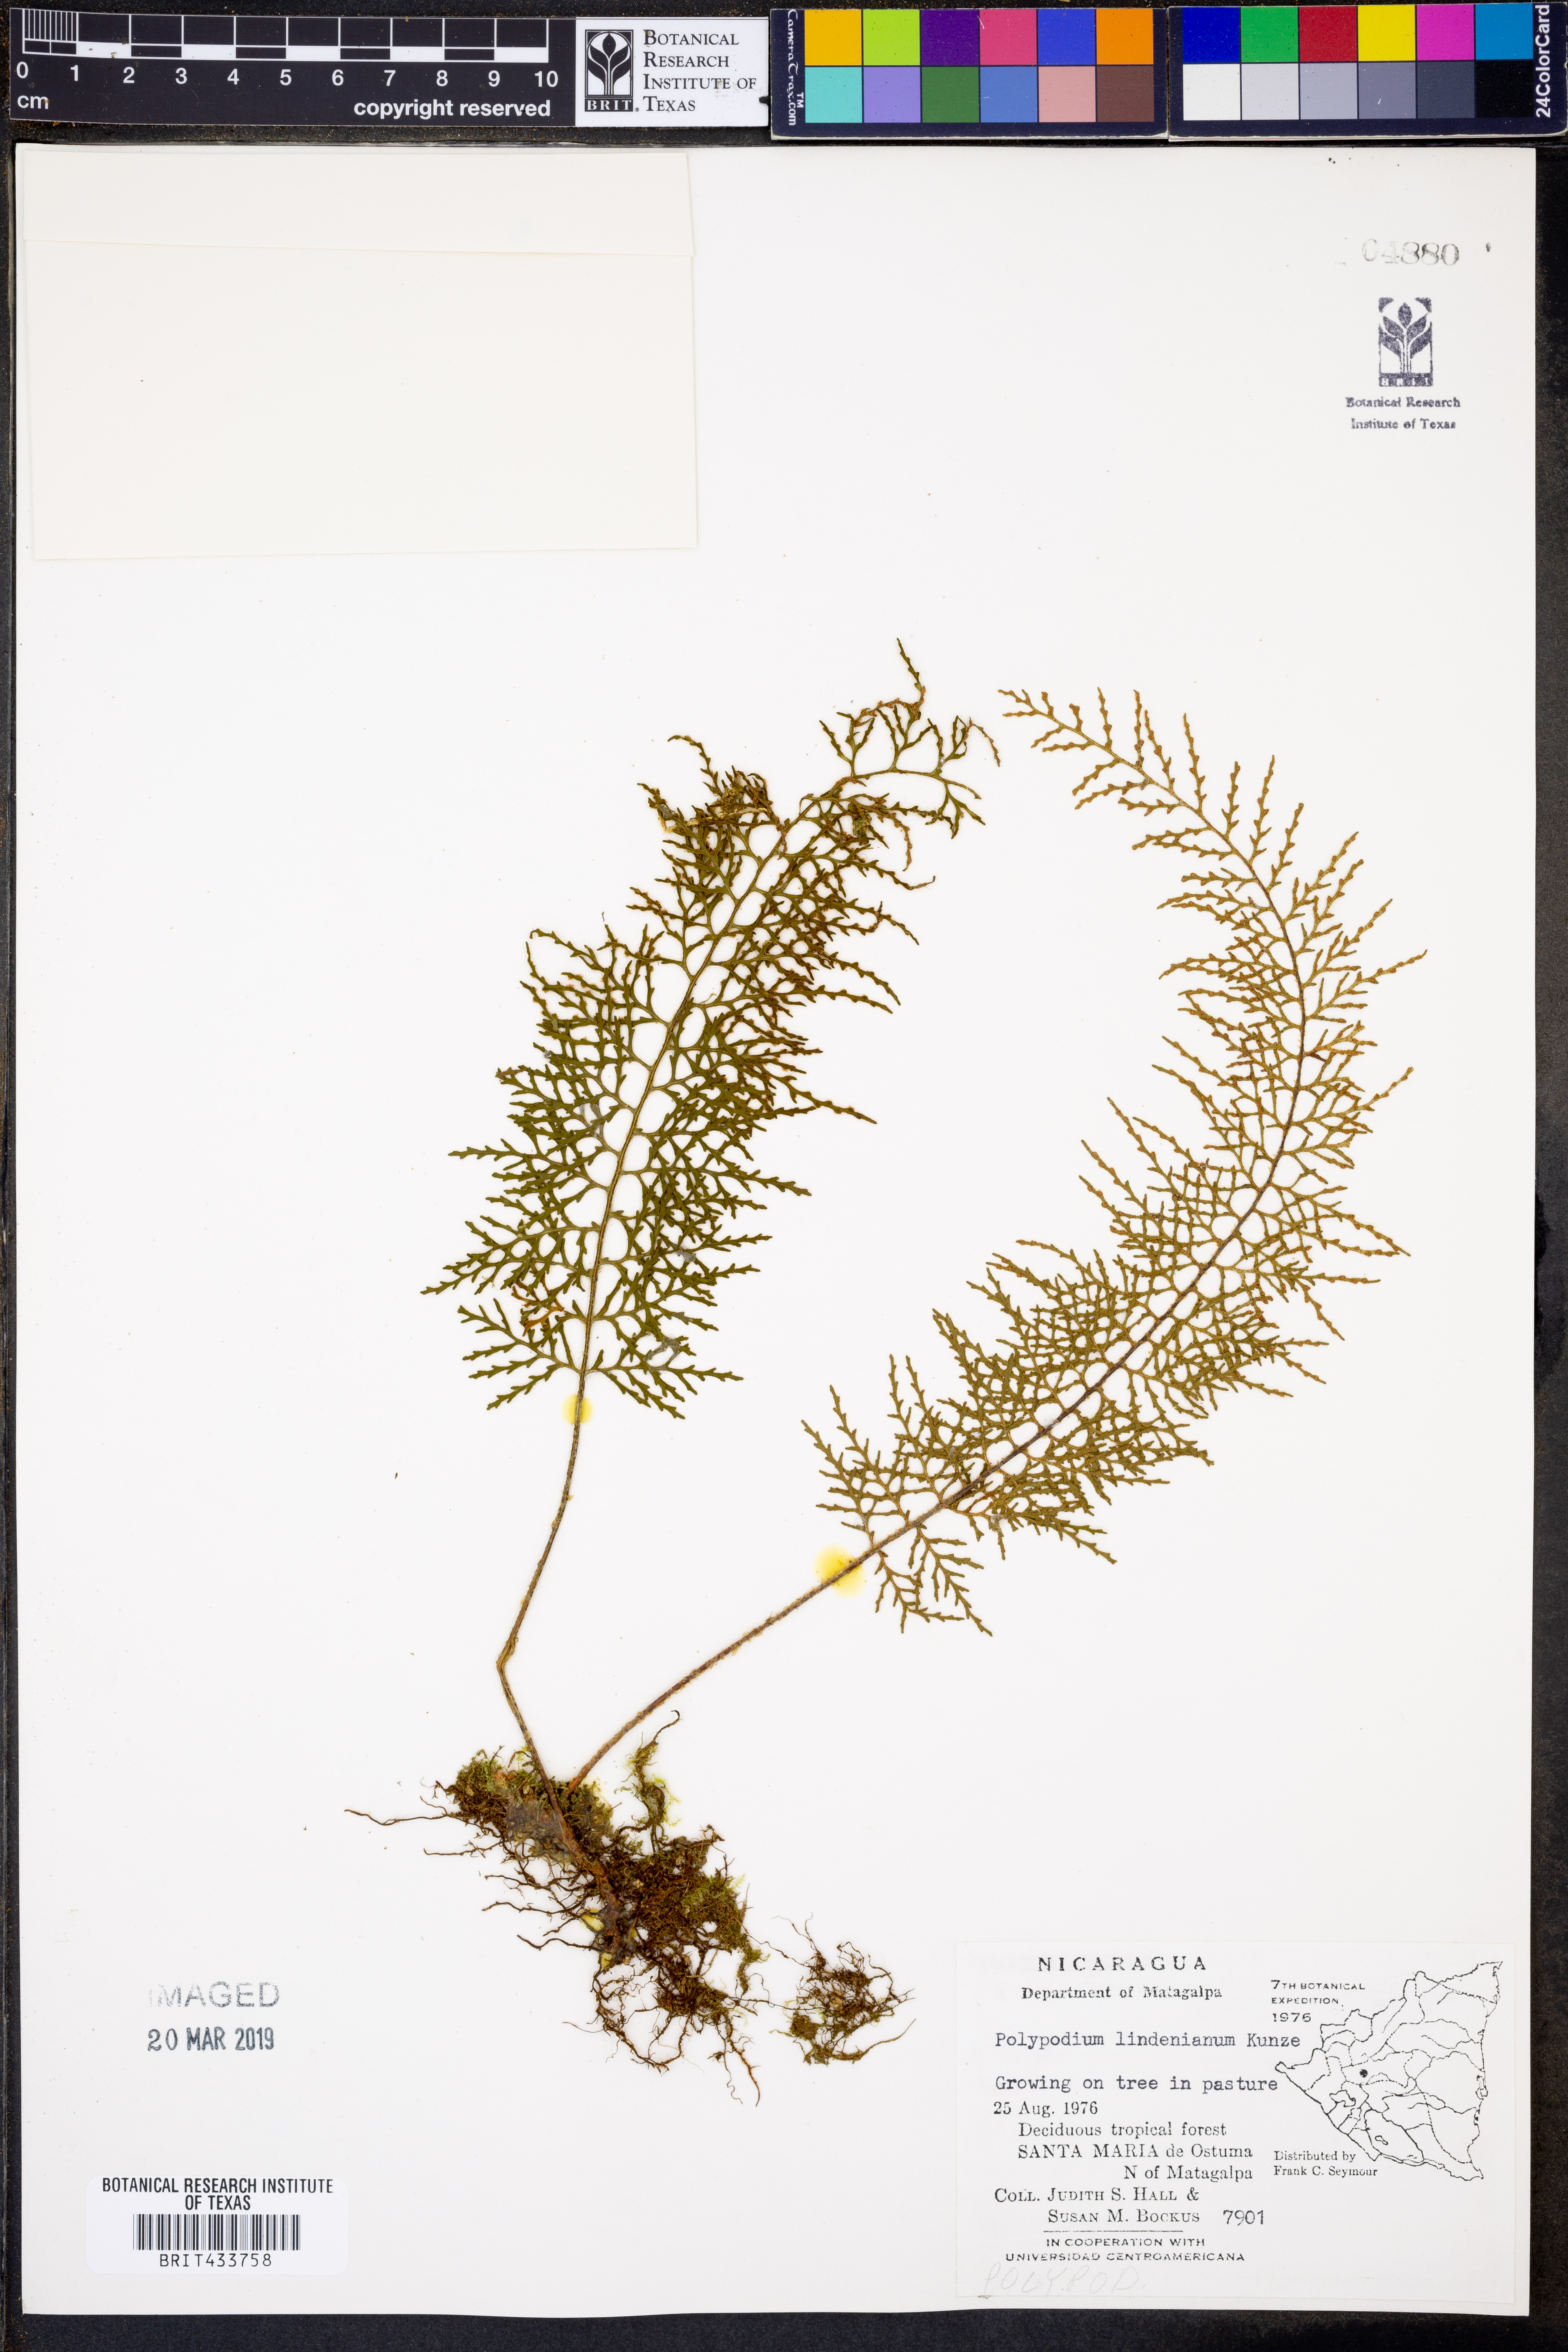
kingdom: Plantae
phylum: Tracheophyta
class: Polypodiopsida
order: Polypodiales
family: Polypodiaceae
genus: Pleopeltis
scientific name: Pleopeltis lindeniana
